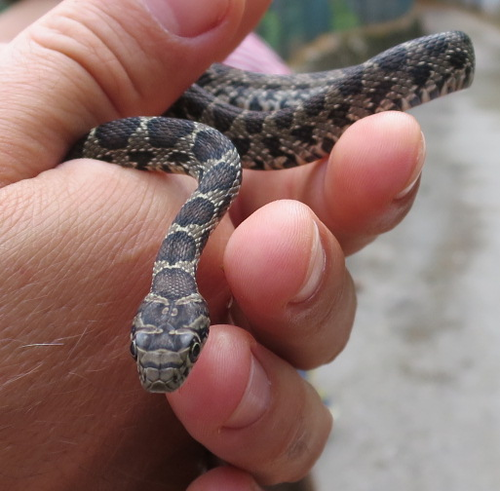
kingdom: Animalia
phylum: Chordata
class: Squamata
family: Colubridae
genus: Hemorrhois
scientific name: Hemorrhois hippocrepis
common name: Horseshoe whip snake
